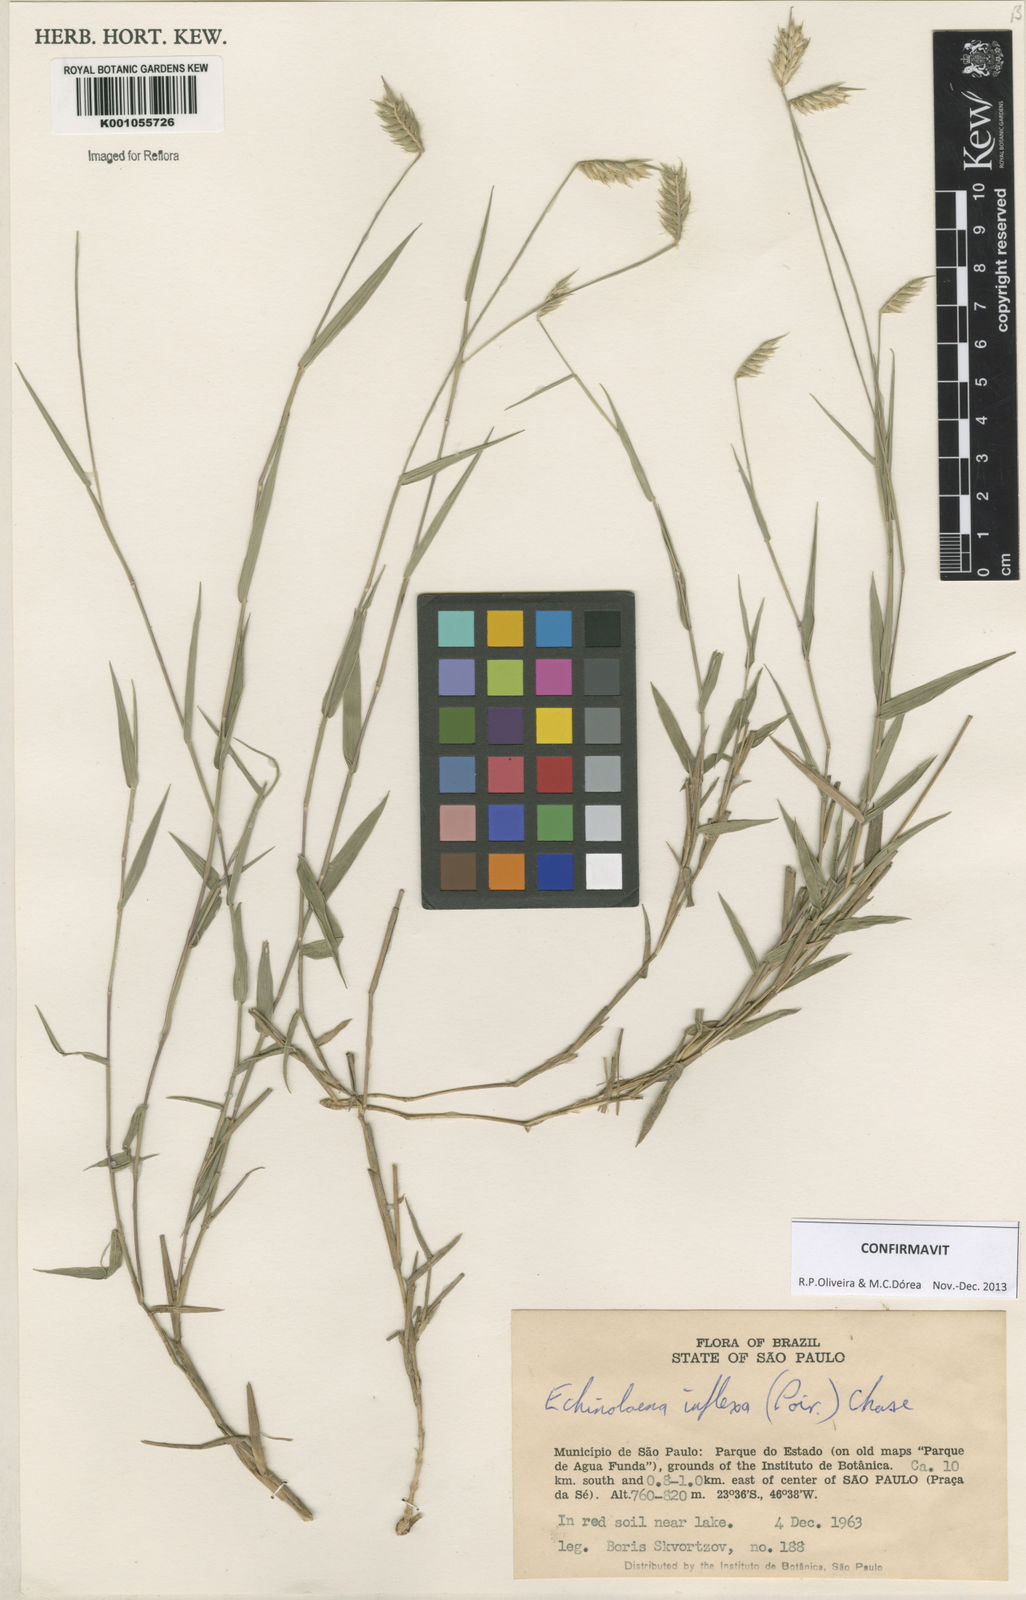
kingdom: Plantae
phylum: Tracheophyta
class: Liliopsida
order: Poales
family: Poaceae
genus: Echinolaena
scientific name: Echinolaena inflexa
